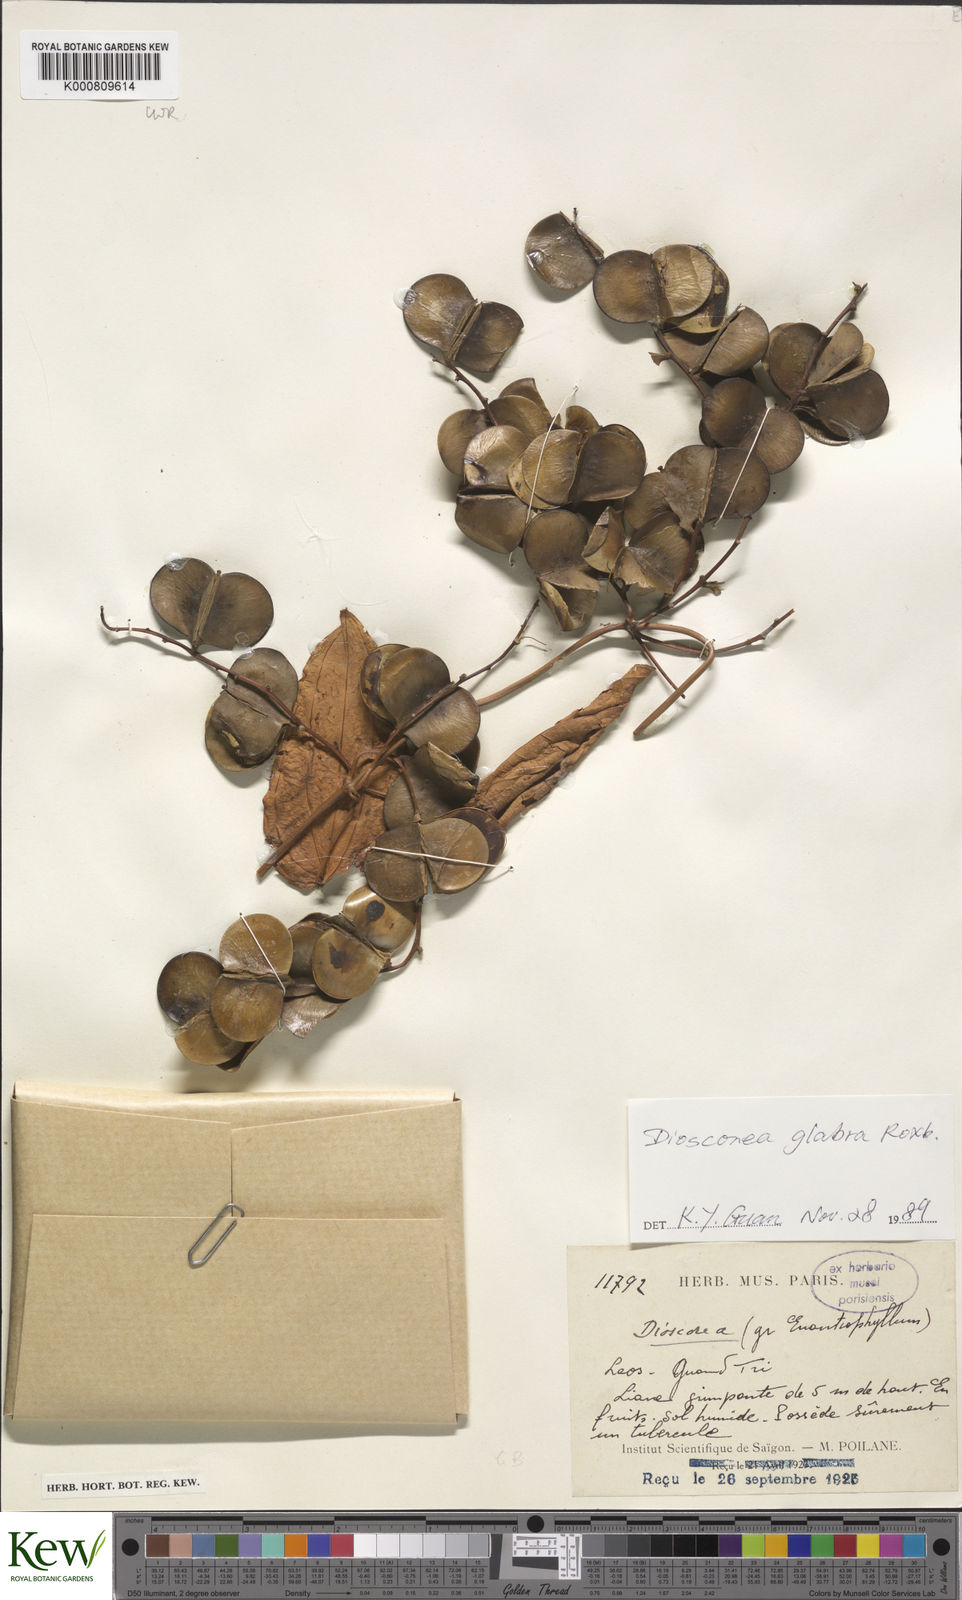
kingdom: Plantae
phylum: Tracheophyta
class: Liliopsida
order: Dioscoreales
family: Dioscoreaceae
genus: Dioscorea
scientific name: Dioscorea glabra
